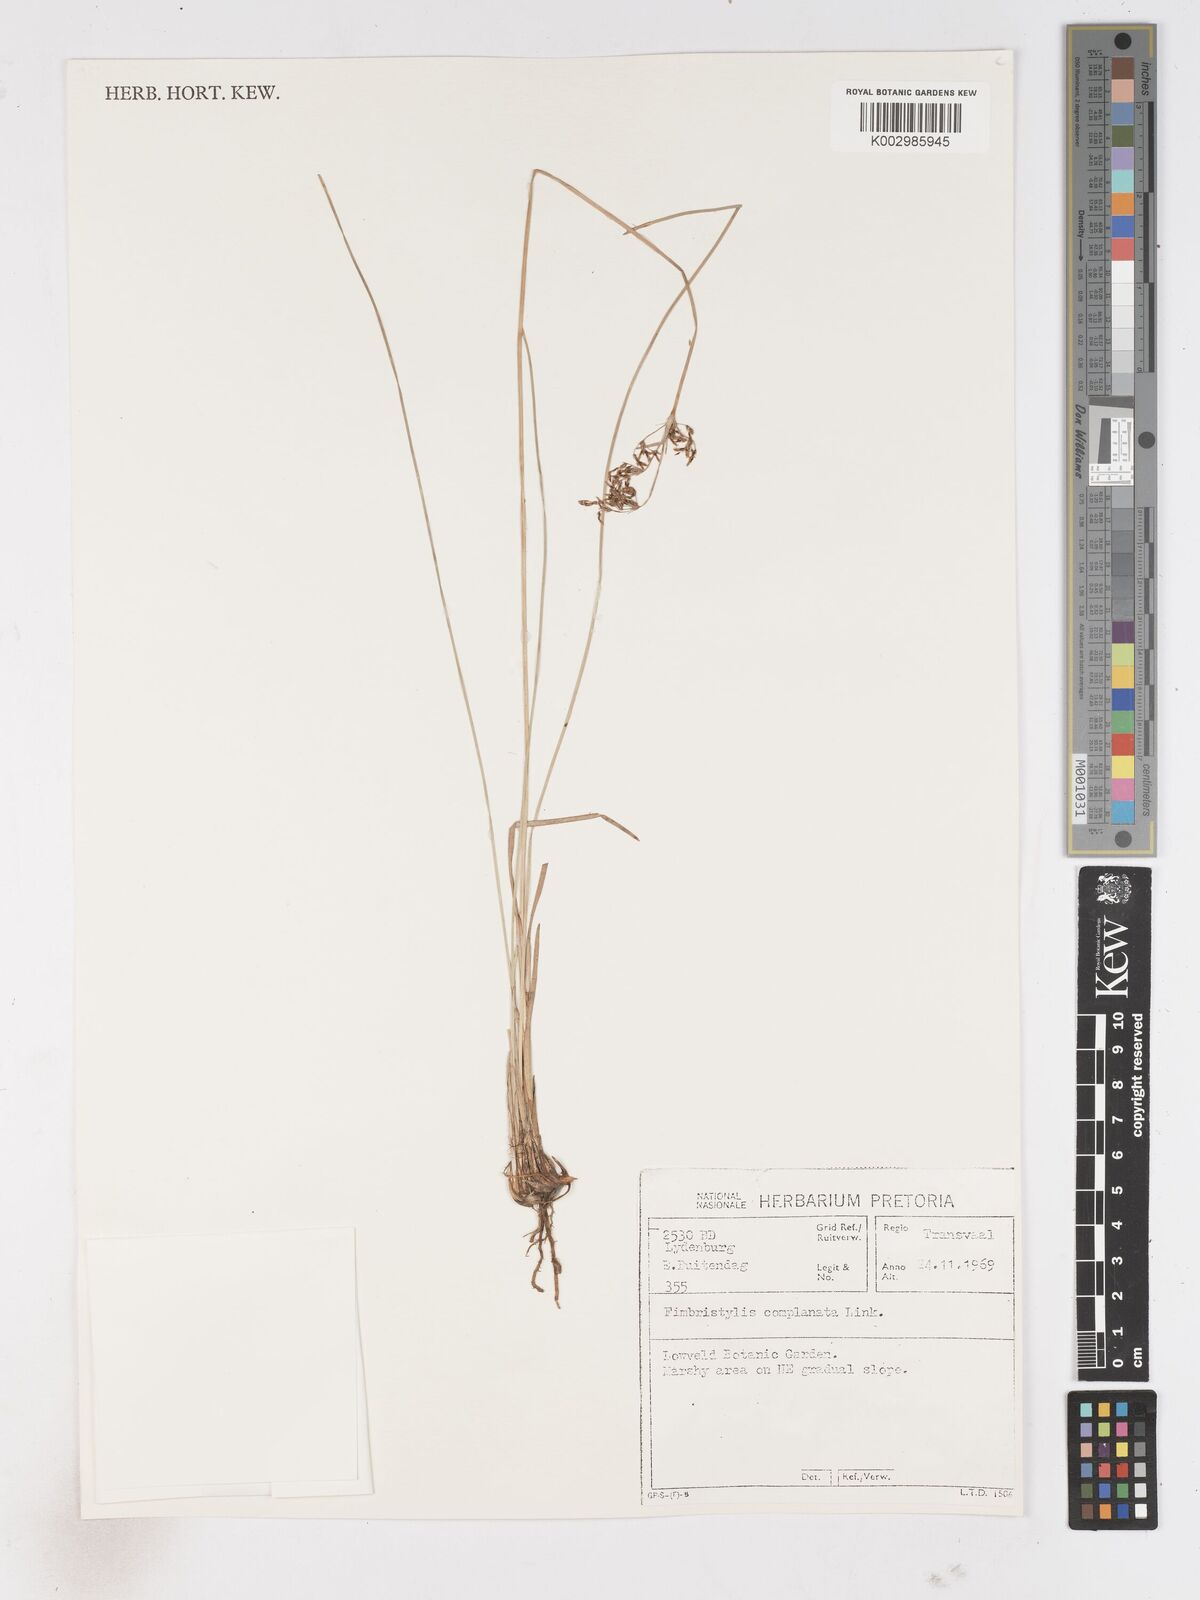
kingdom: Plantae
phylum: Tracheophyta
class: Liliopsida
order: Poales
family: Cyperaceae
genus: Fimbristylis
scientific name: Fimbristylis complanata
